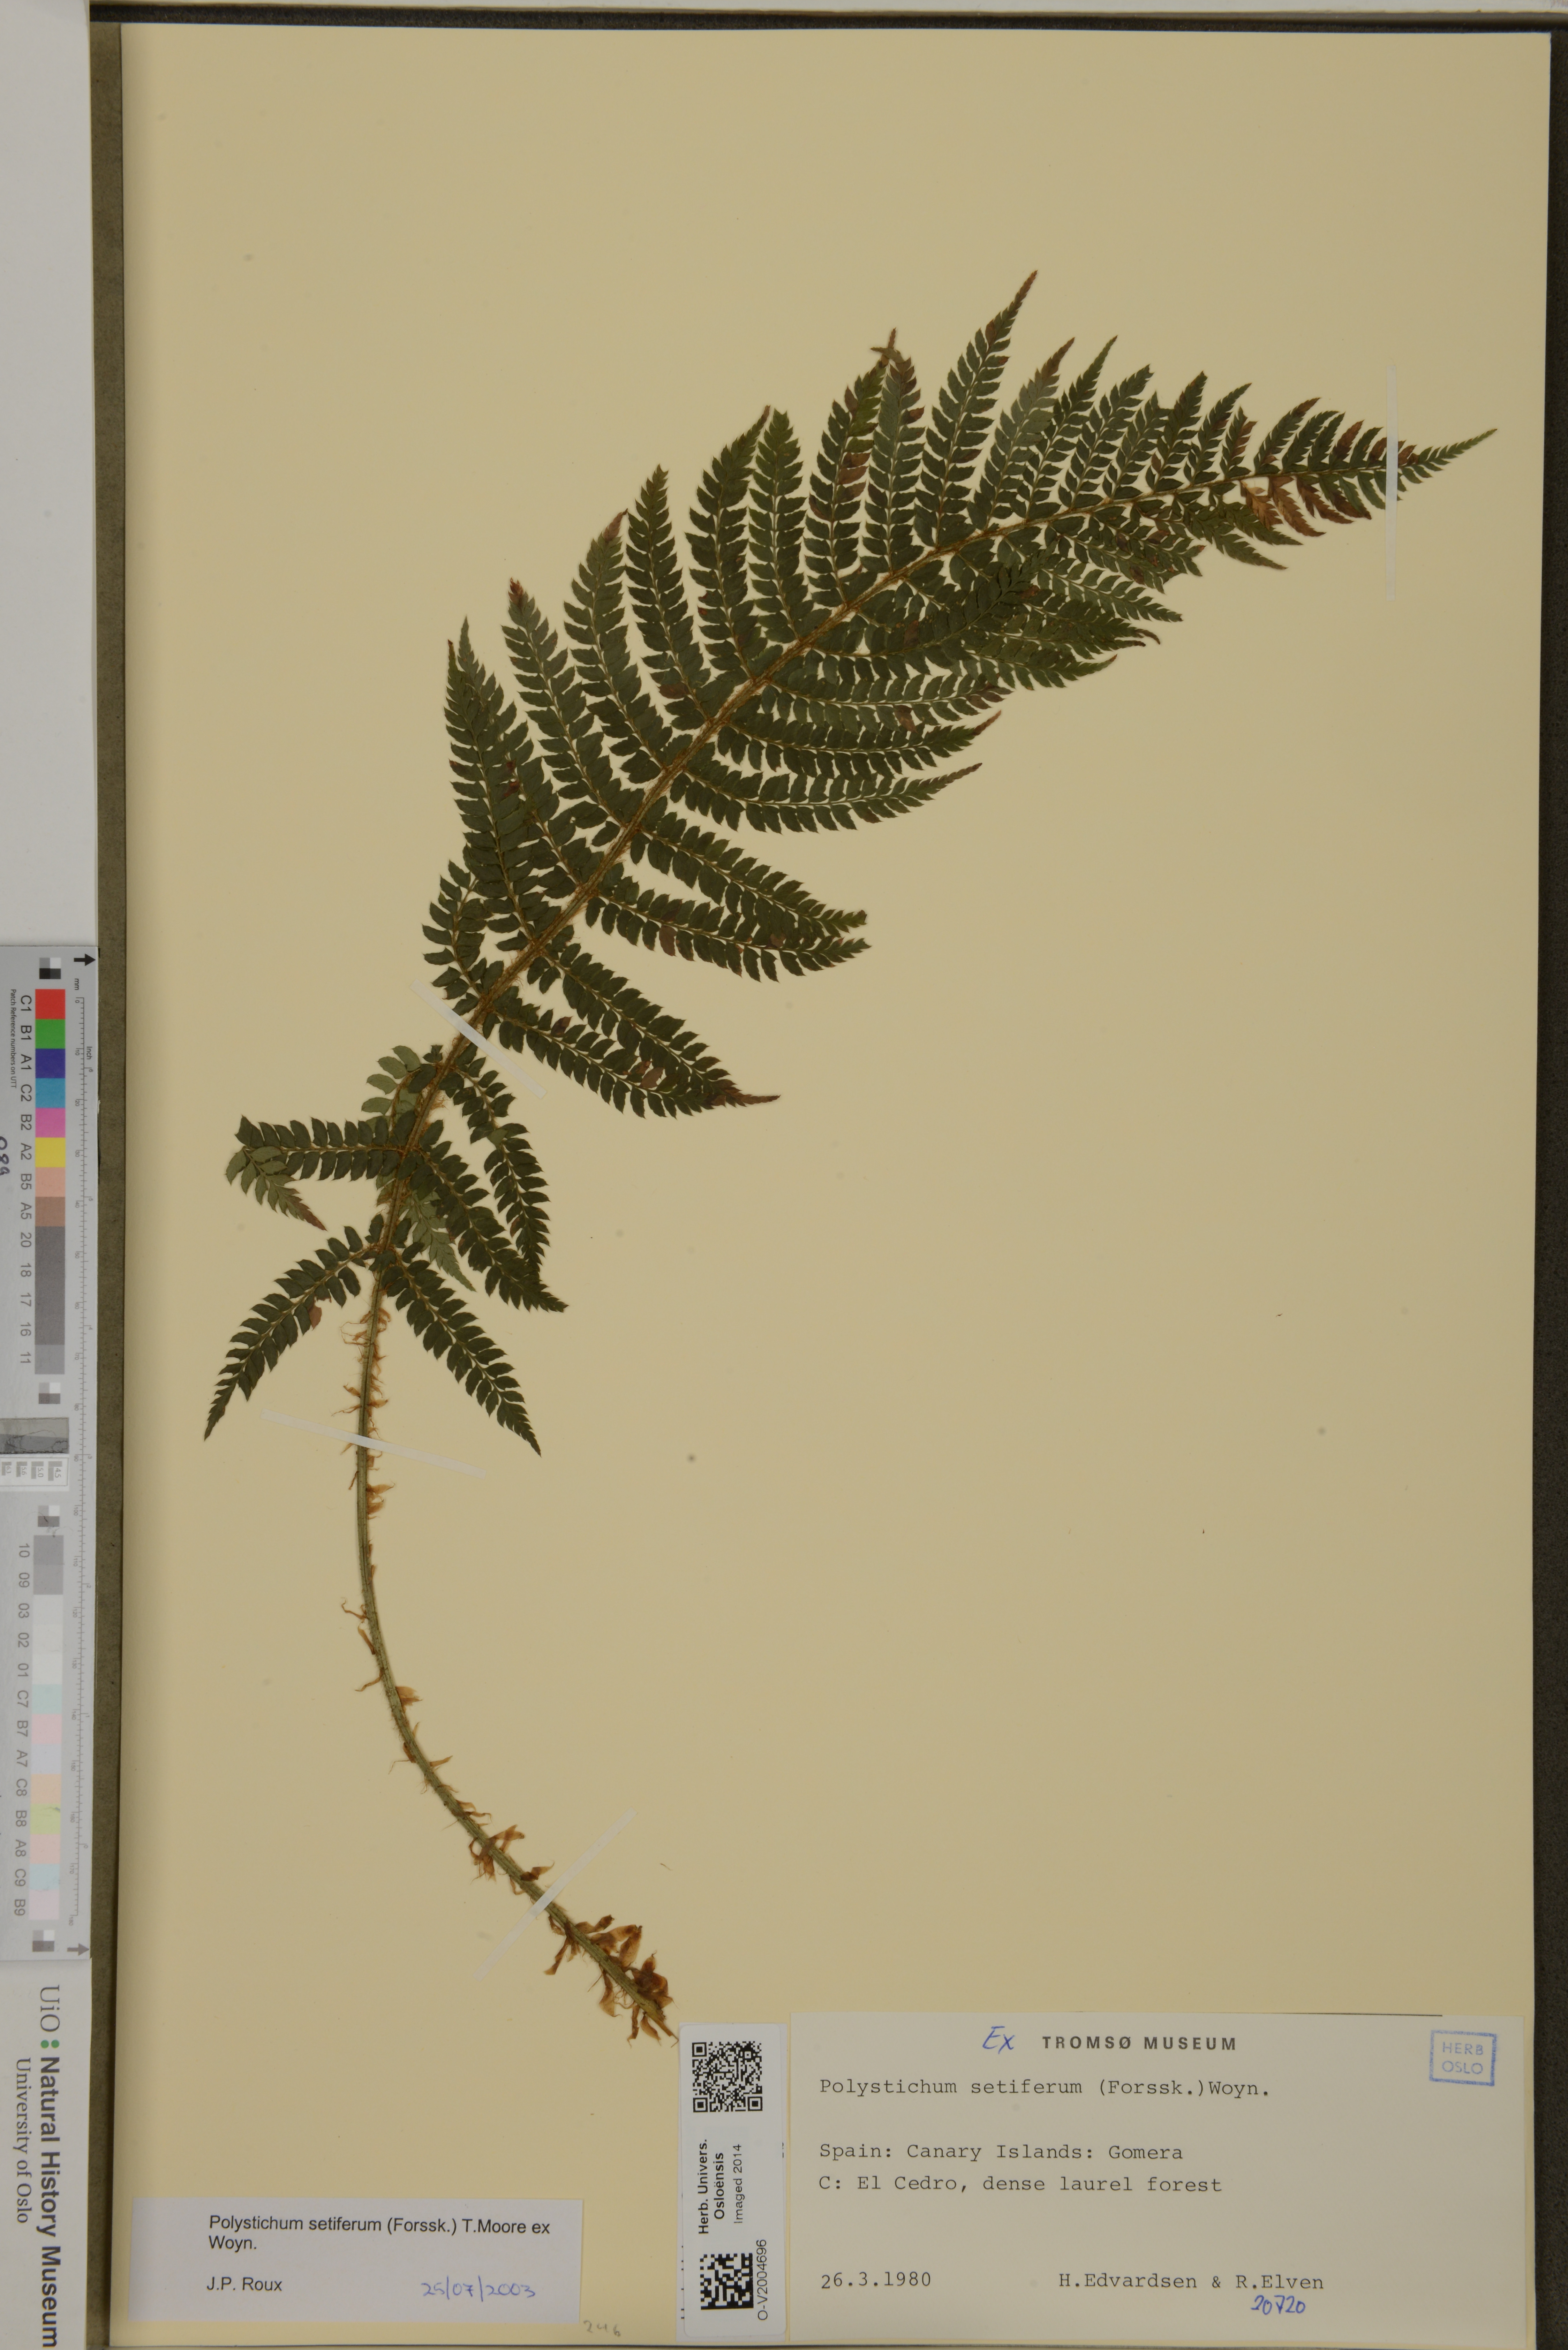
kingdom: Plantae
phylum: Tracheophyta
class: Polypodiopsida
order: Polypodiales
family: Dryopteridaceae
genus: Polystichum
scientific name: Polystichum setiferum
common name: Soft shield-fern
